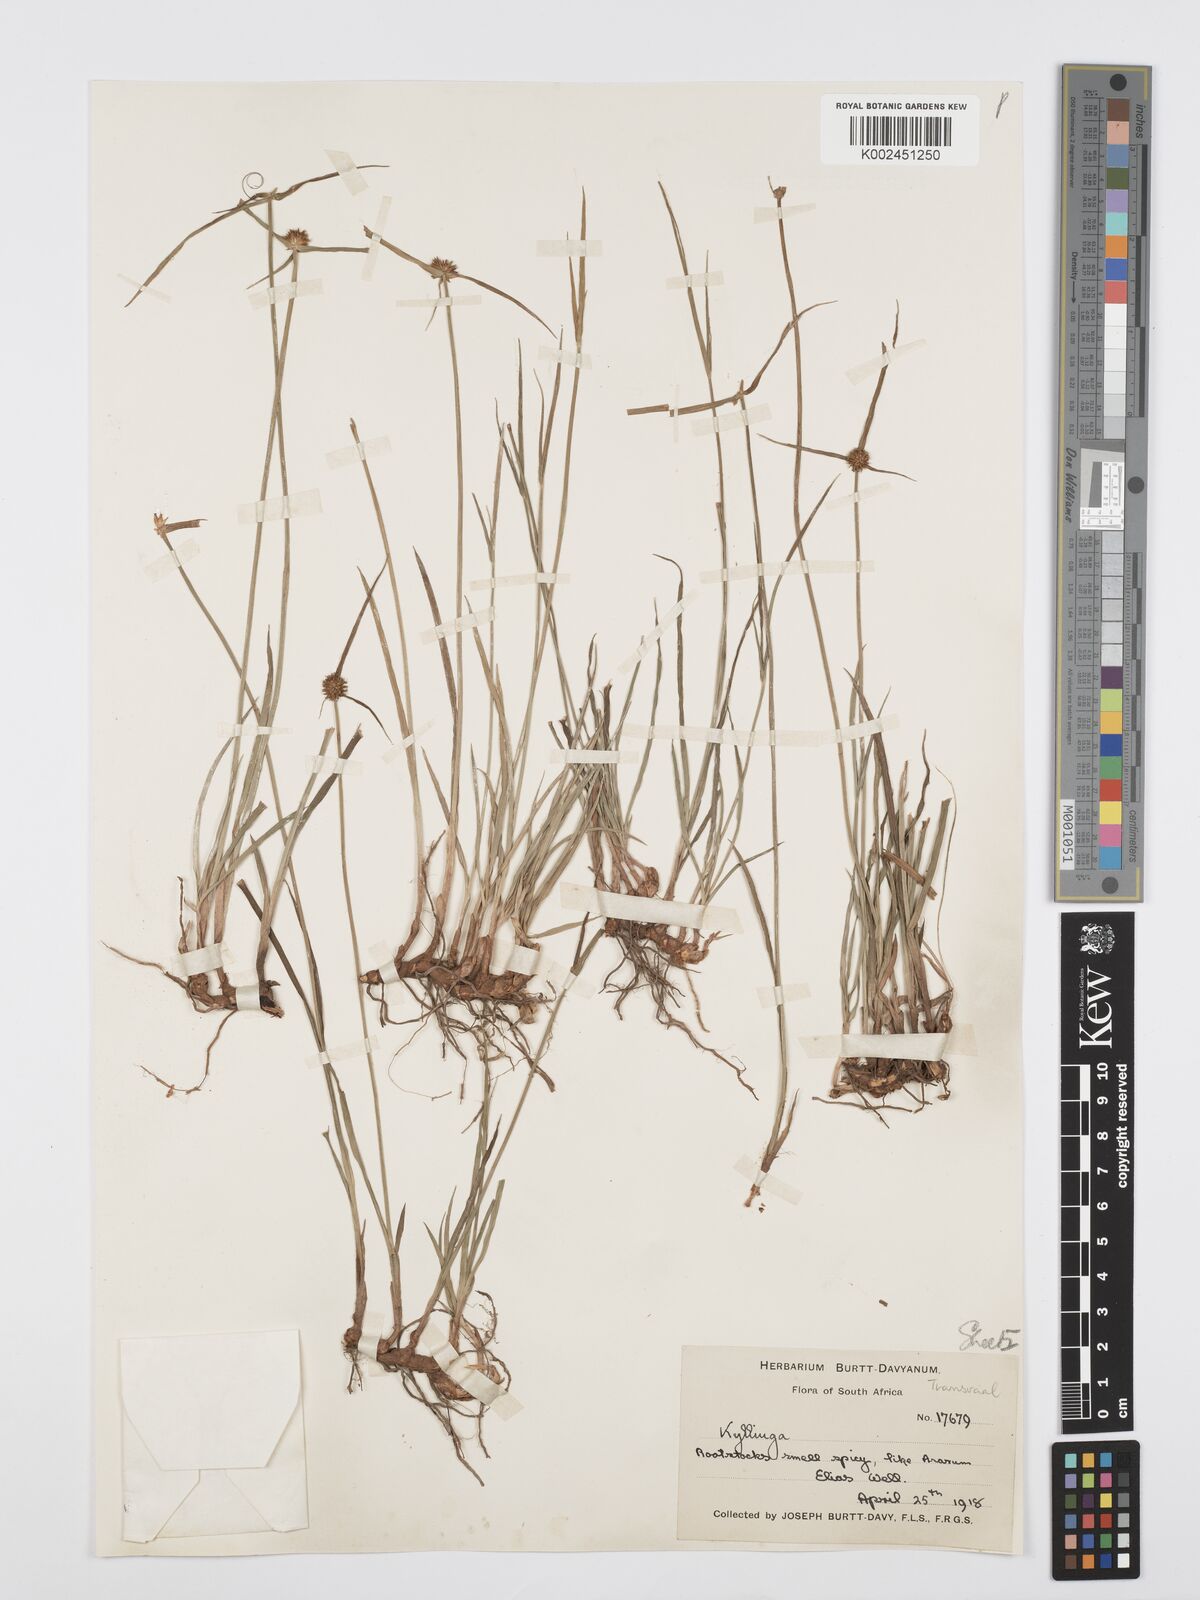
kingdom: Plantae
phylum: Tracheophyta
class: Liliopsida
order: Poales
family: Cyperaceae
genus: Cyperus
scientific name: Cyperus erectus
